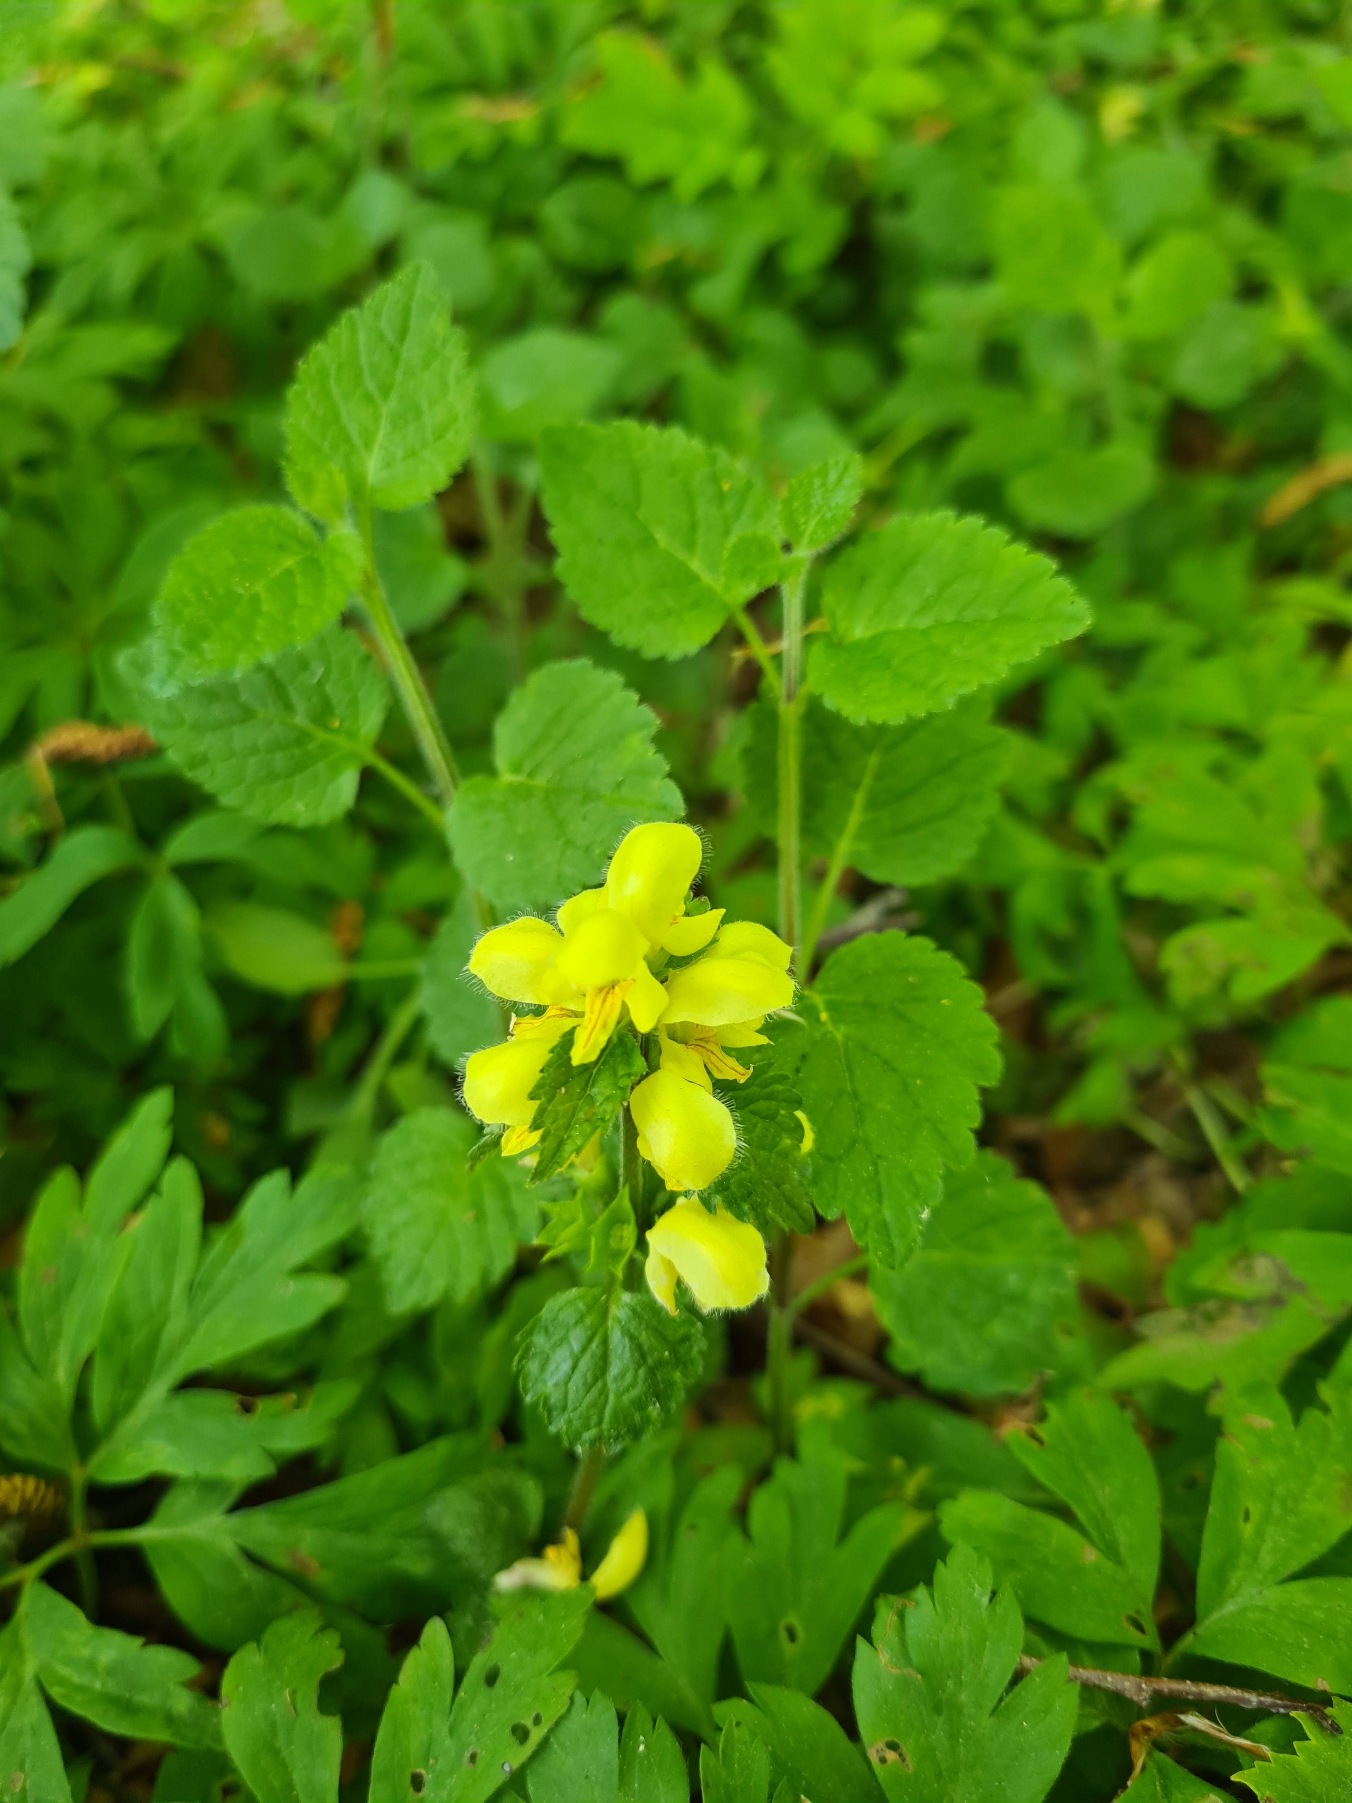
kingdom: Plantae
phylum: Tracheophyta
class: Magnoliopsida
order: Lamiales
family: Lamiaceae
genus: Lamium
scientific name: Lamium galeobdolon
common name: Almindelig guldnælde
